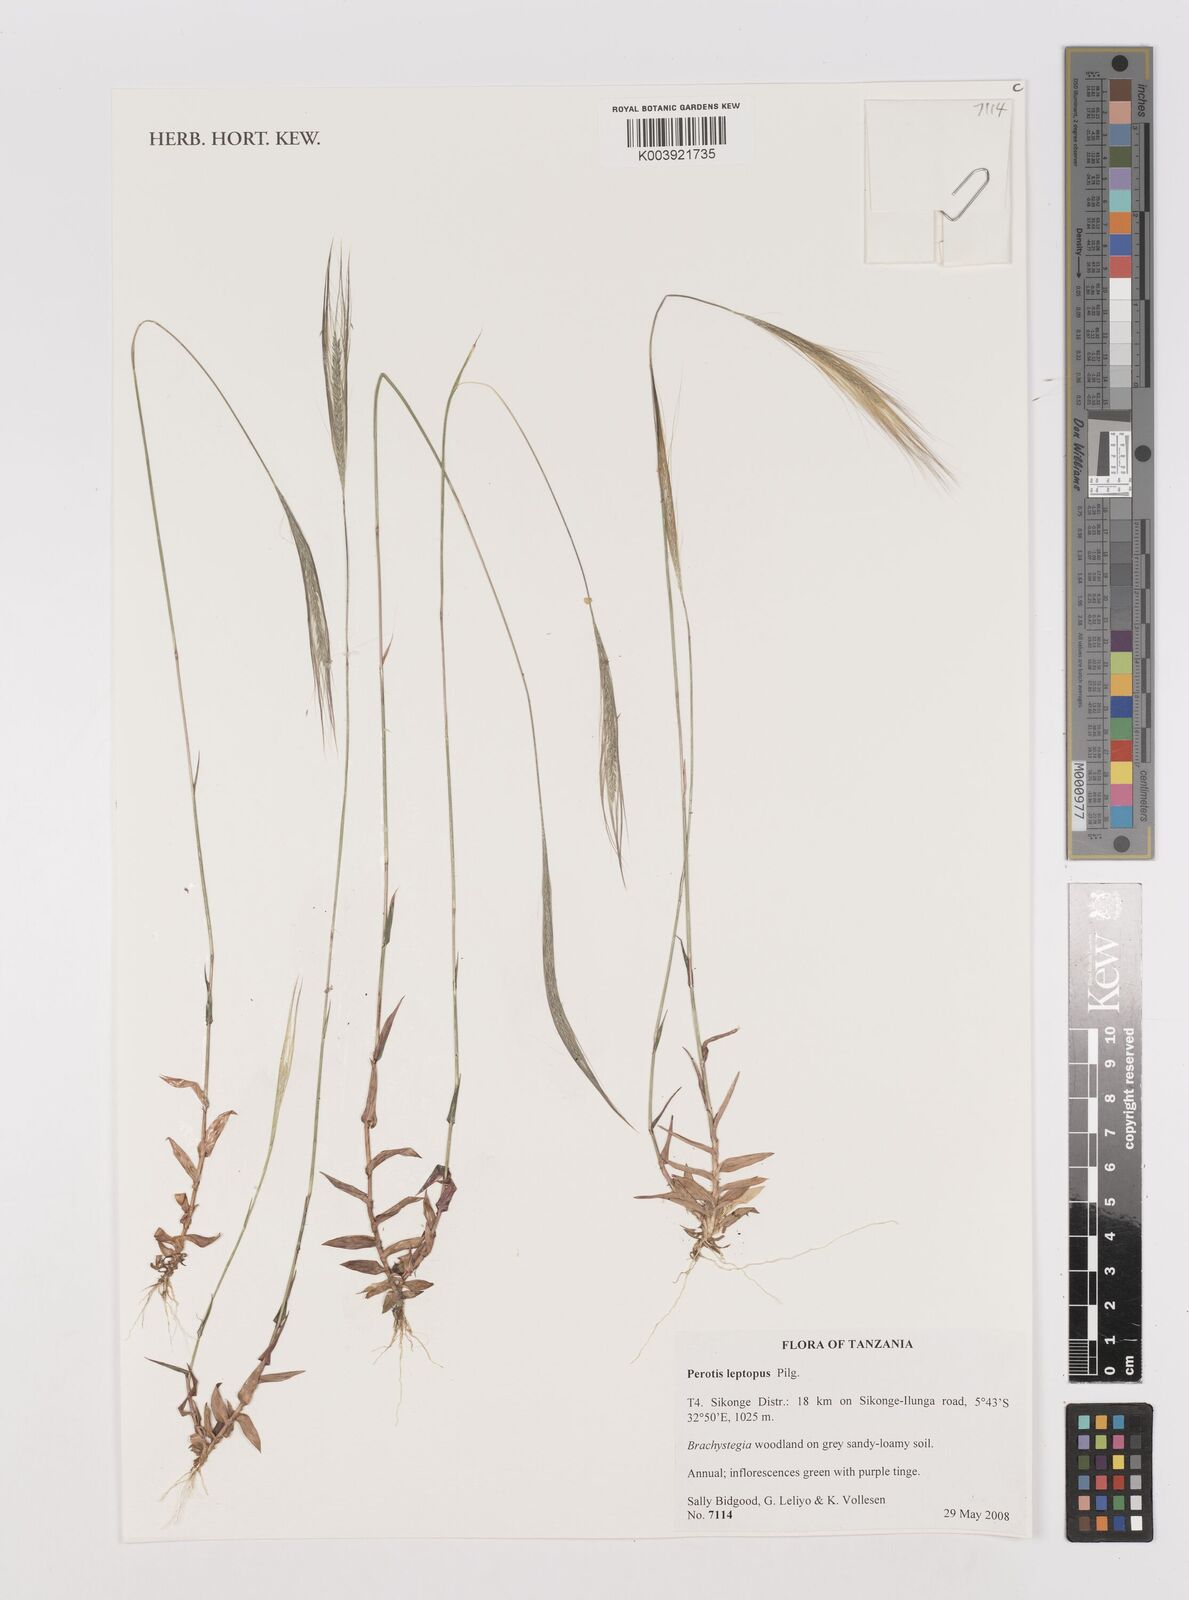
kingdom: Plantae
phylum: Tracheophyta
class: Liliopsida
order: Poales
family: Poaceae
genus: Perotis
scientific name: Perotis leptopus
